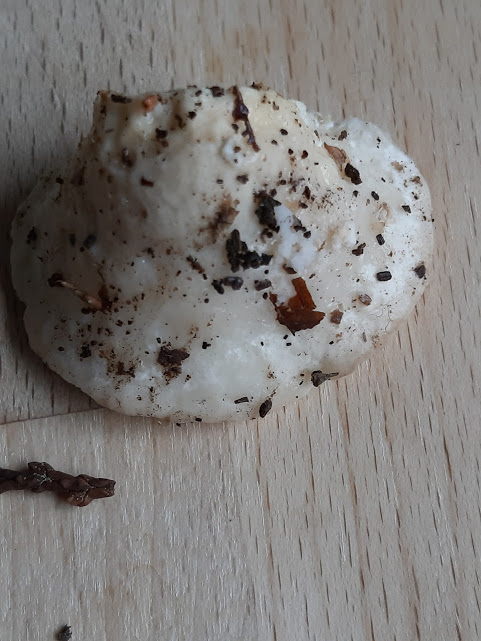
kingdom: Fungi
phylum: Basidiomycota
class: Agaricomycetes
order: Polyporales
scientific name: Polyporales
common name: poresvampordenen
